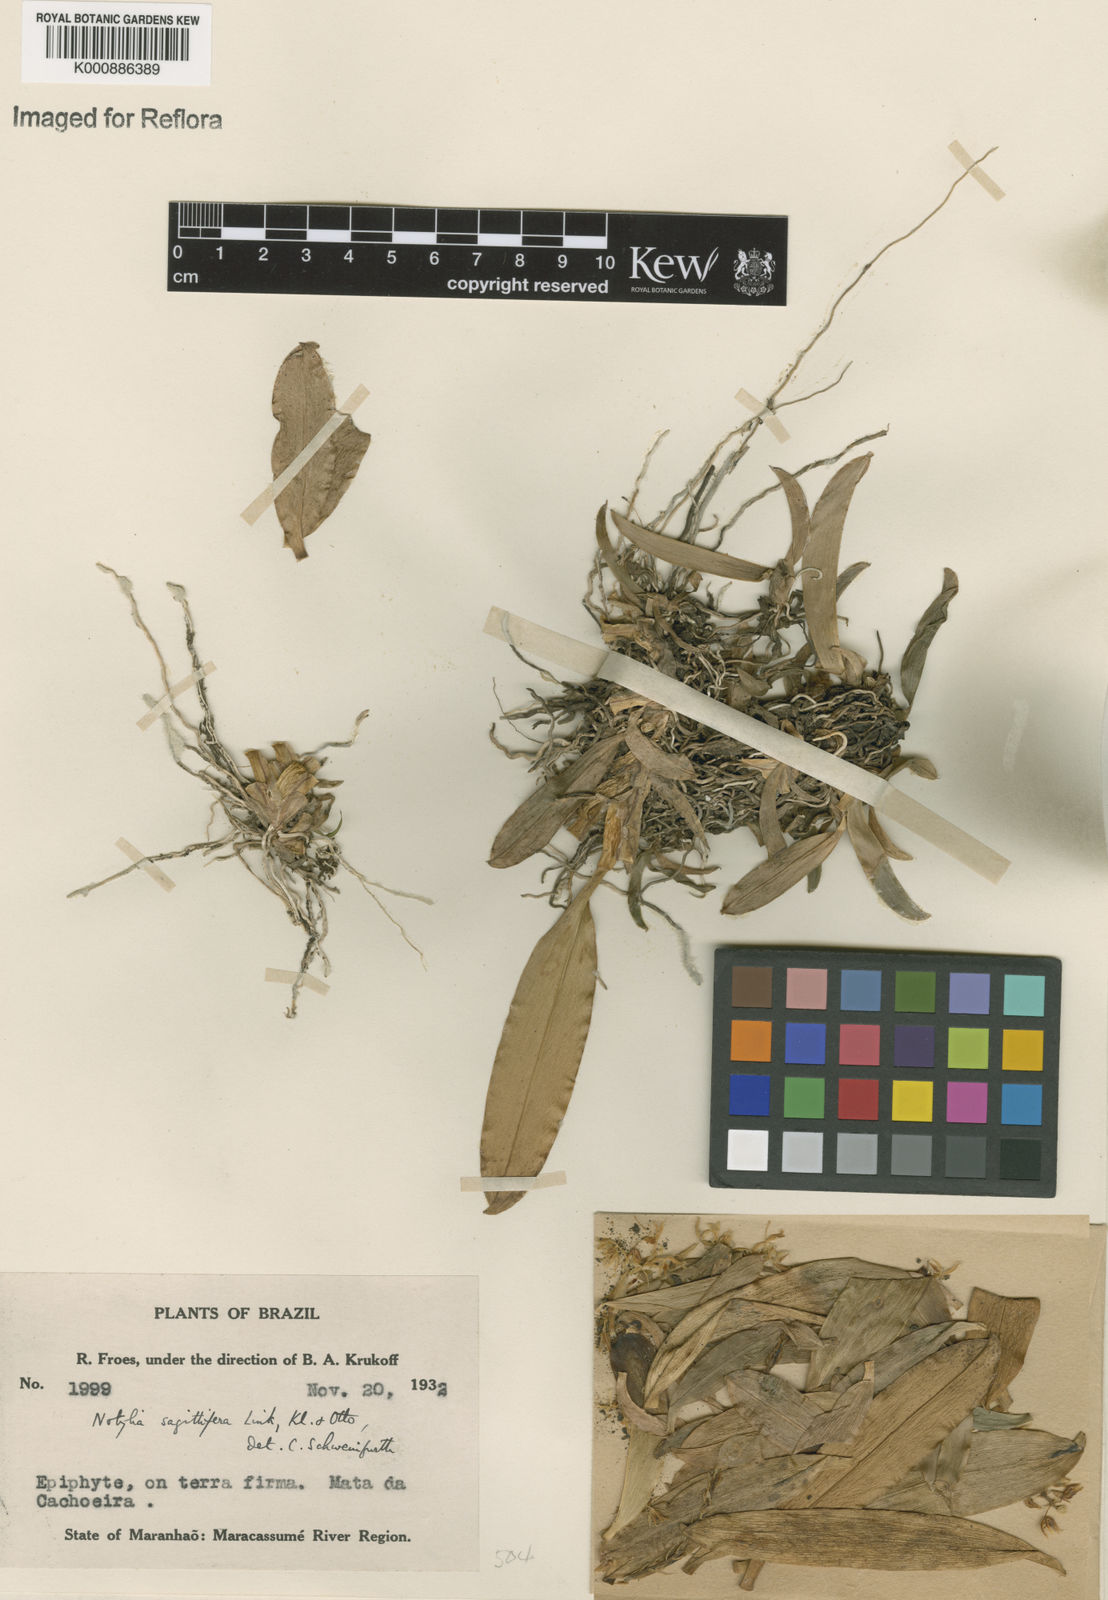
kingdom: Plantae
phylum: Tracheophyta
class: Liliopsida
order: Asparagales
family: Orchidaceae
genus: Notylia
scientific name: Notylia sagittifera
